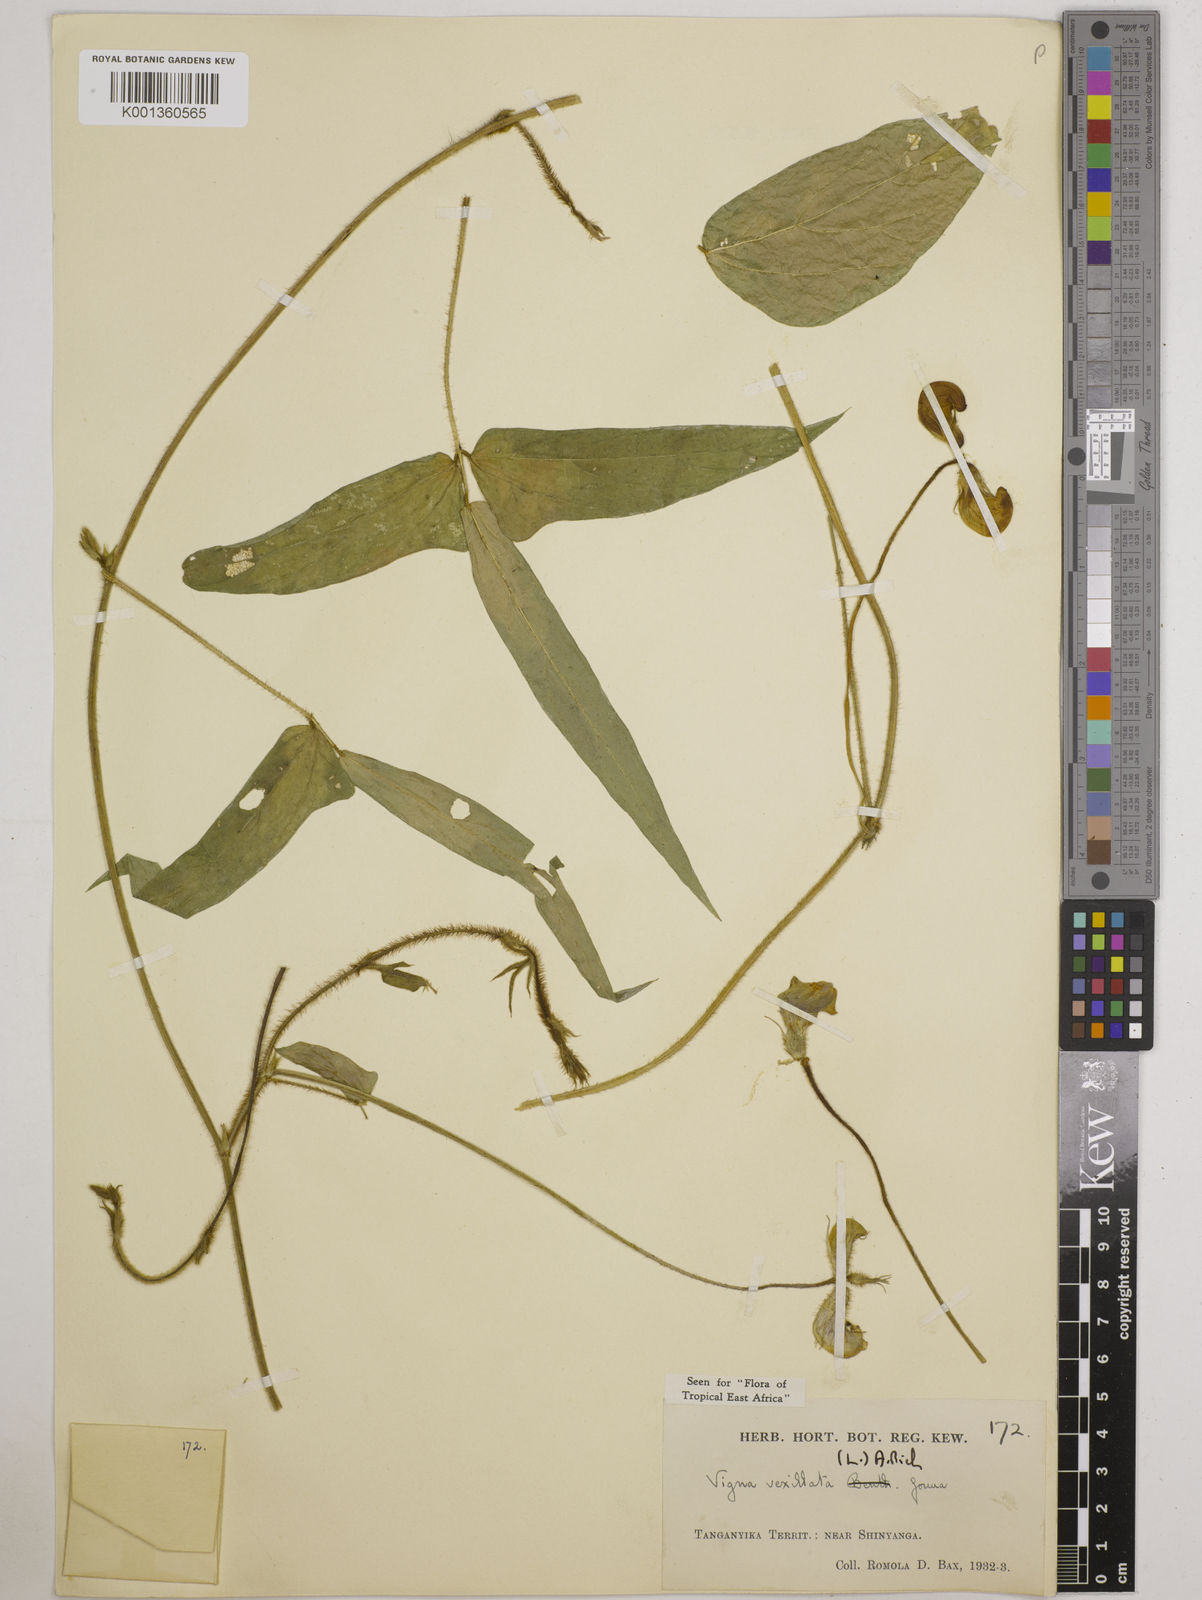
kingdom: Plantae
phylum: Tracheophyta
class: Magnoliopsida
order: Fabales
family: Fabaceae
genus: Vigna
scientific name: Vigna vexillata
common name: Zombi pea
